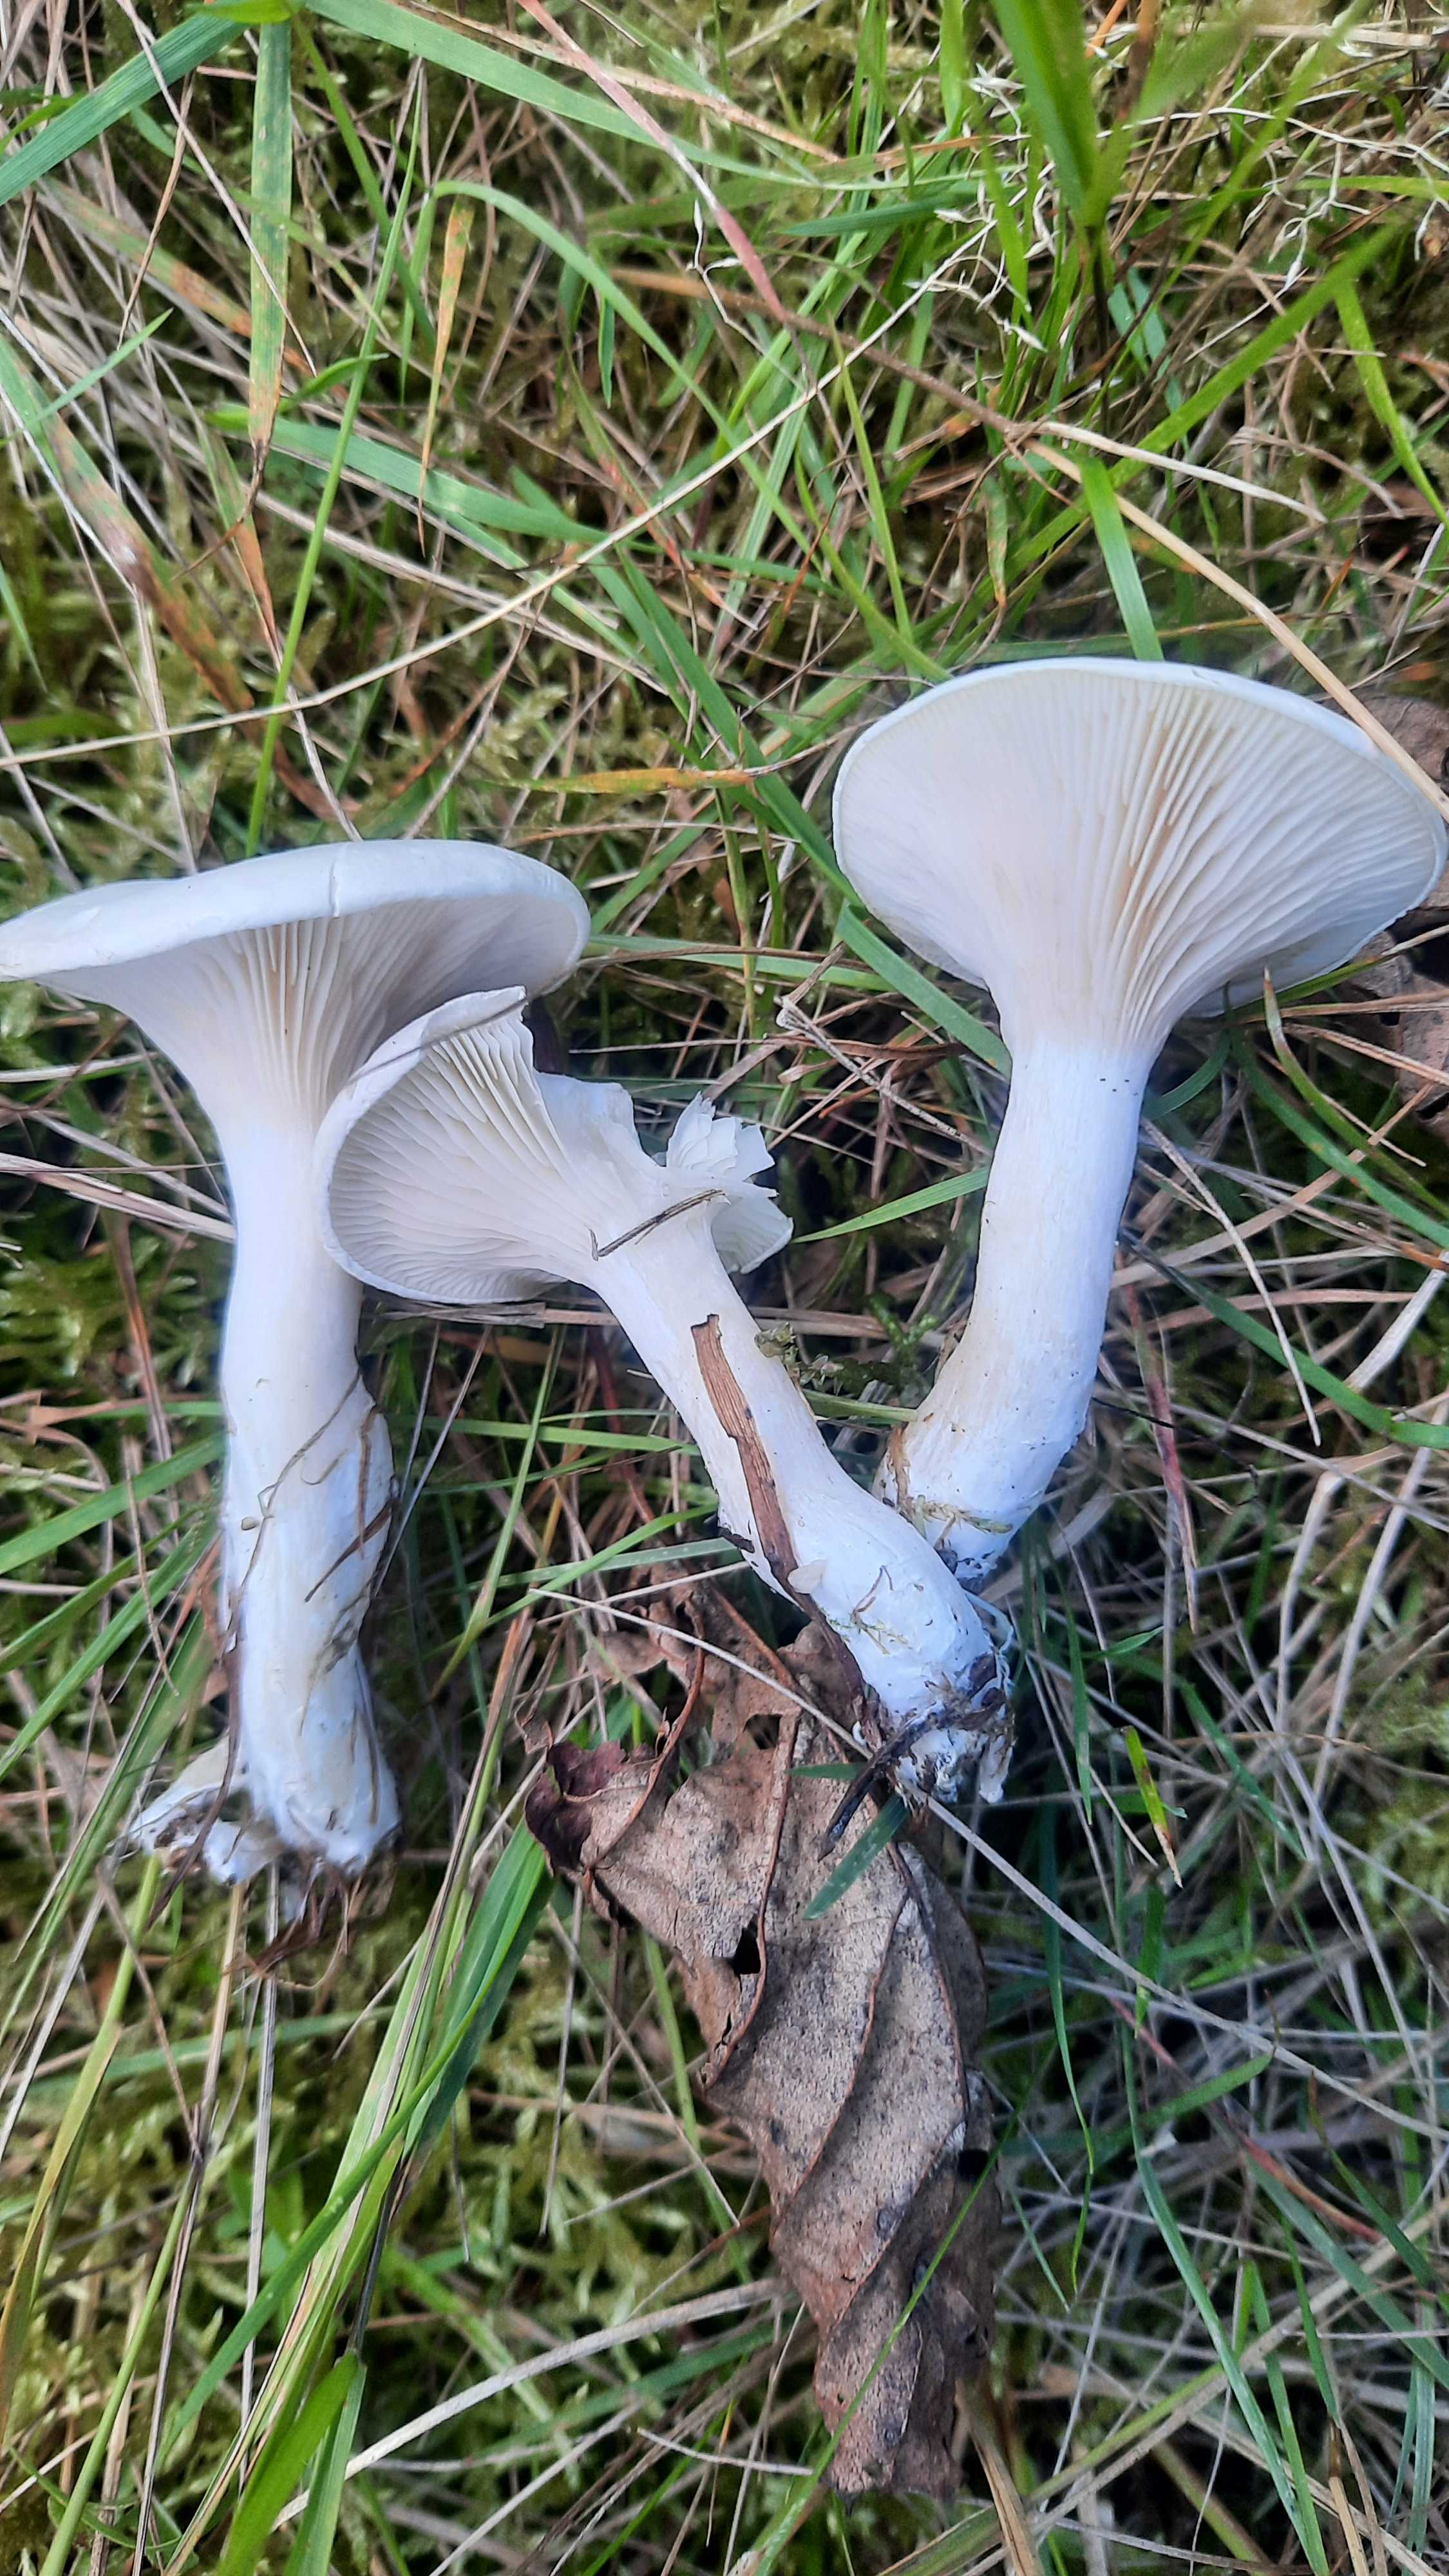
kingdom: Fungi
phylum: Basidiomycota
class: Agaricomycetes
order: Agaricales
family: Entolomataceae
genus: Clitopilus
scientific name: Clitopilus prunulus
